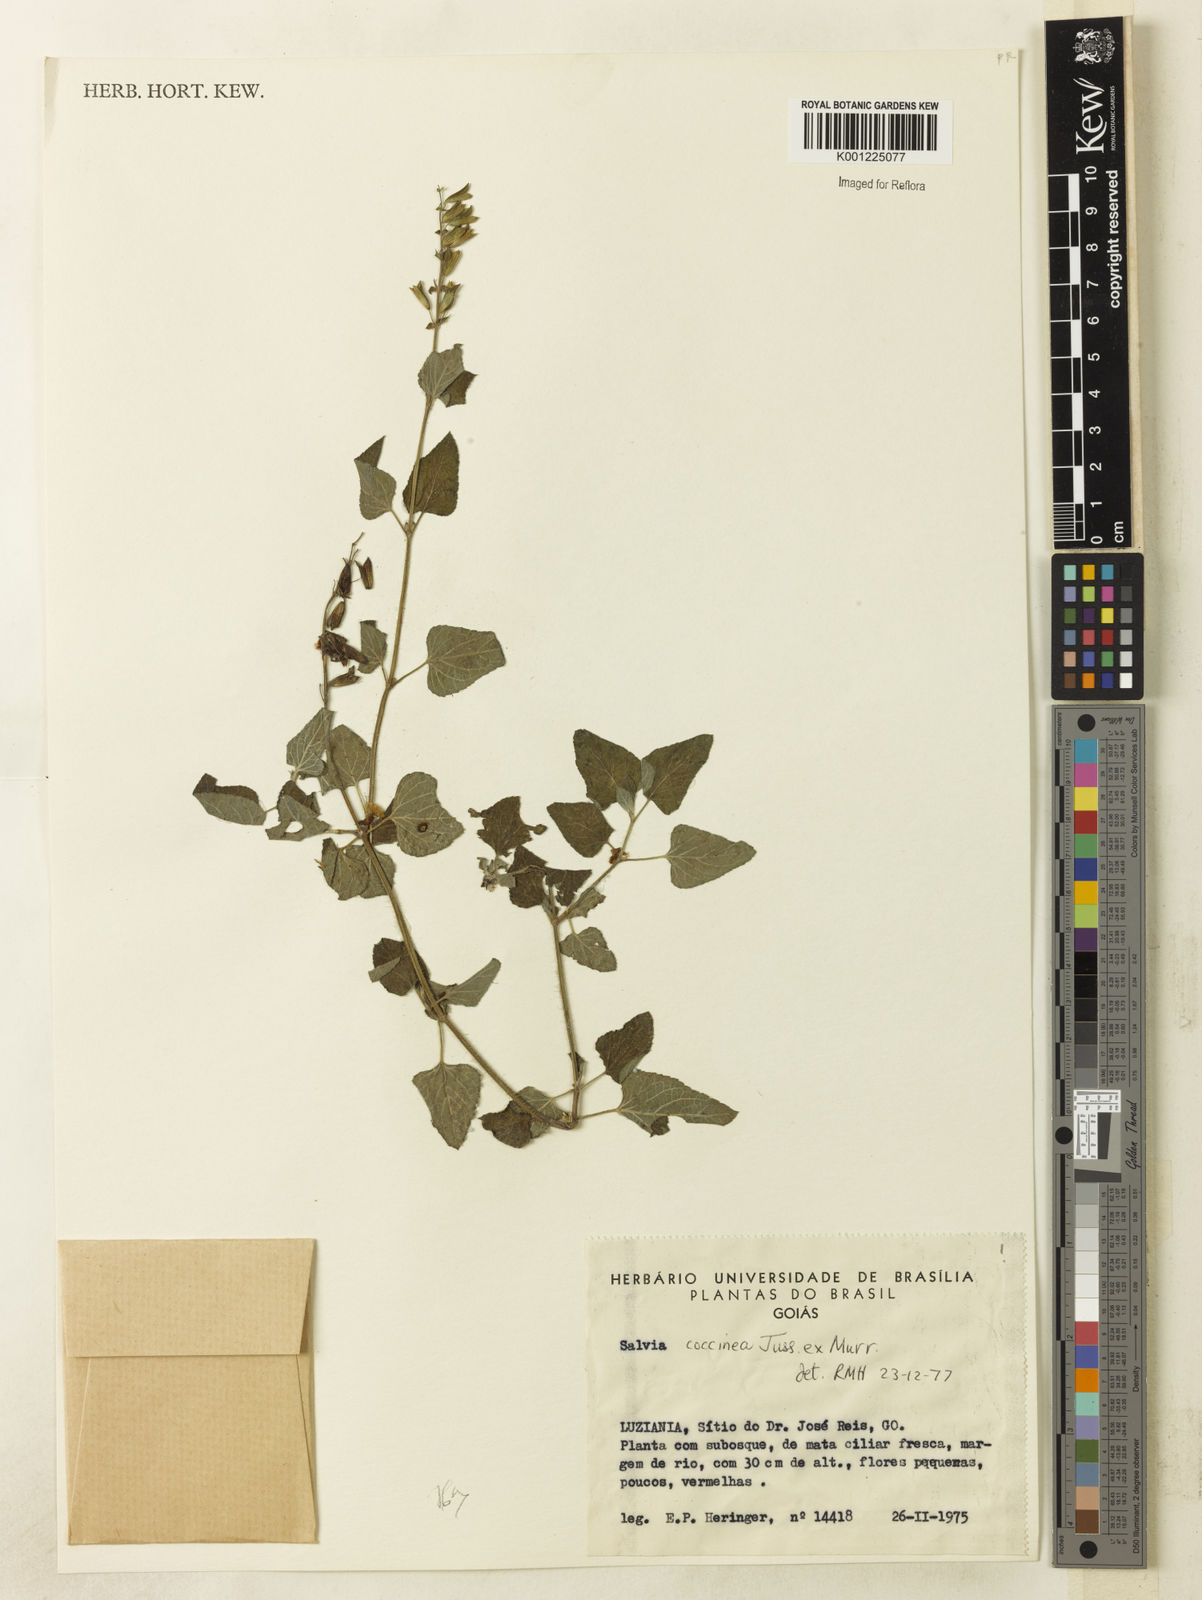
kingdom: Plantae
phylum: Tracheophyta
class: Magnoliopsida
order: Lamiales
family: Lamiaceae
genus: Salvia
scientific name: Salvia coccinea
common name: Blood sage
